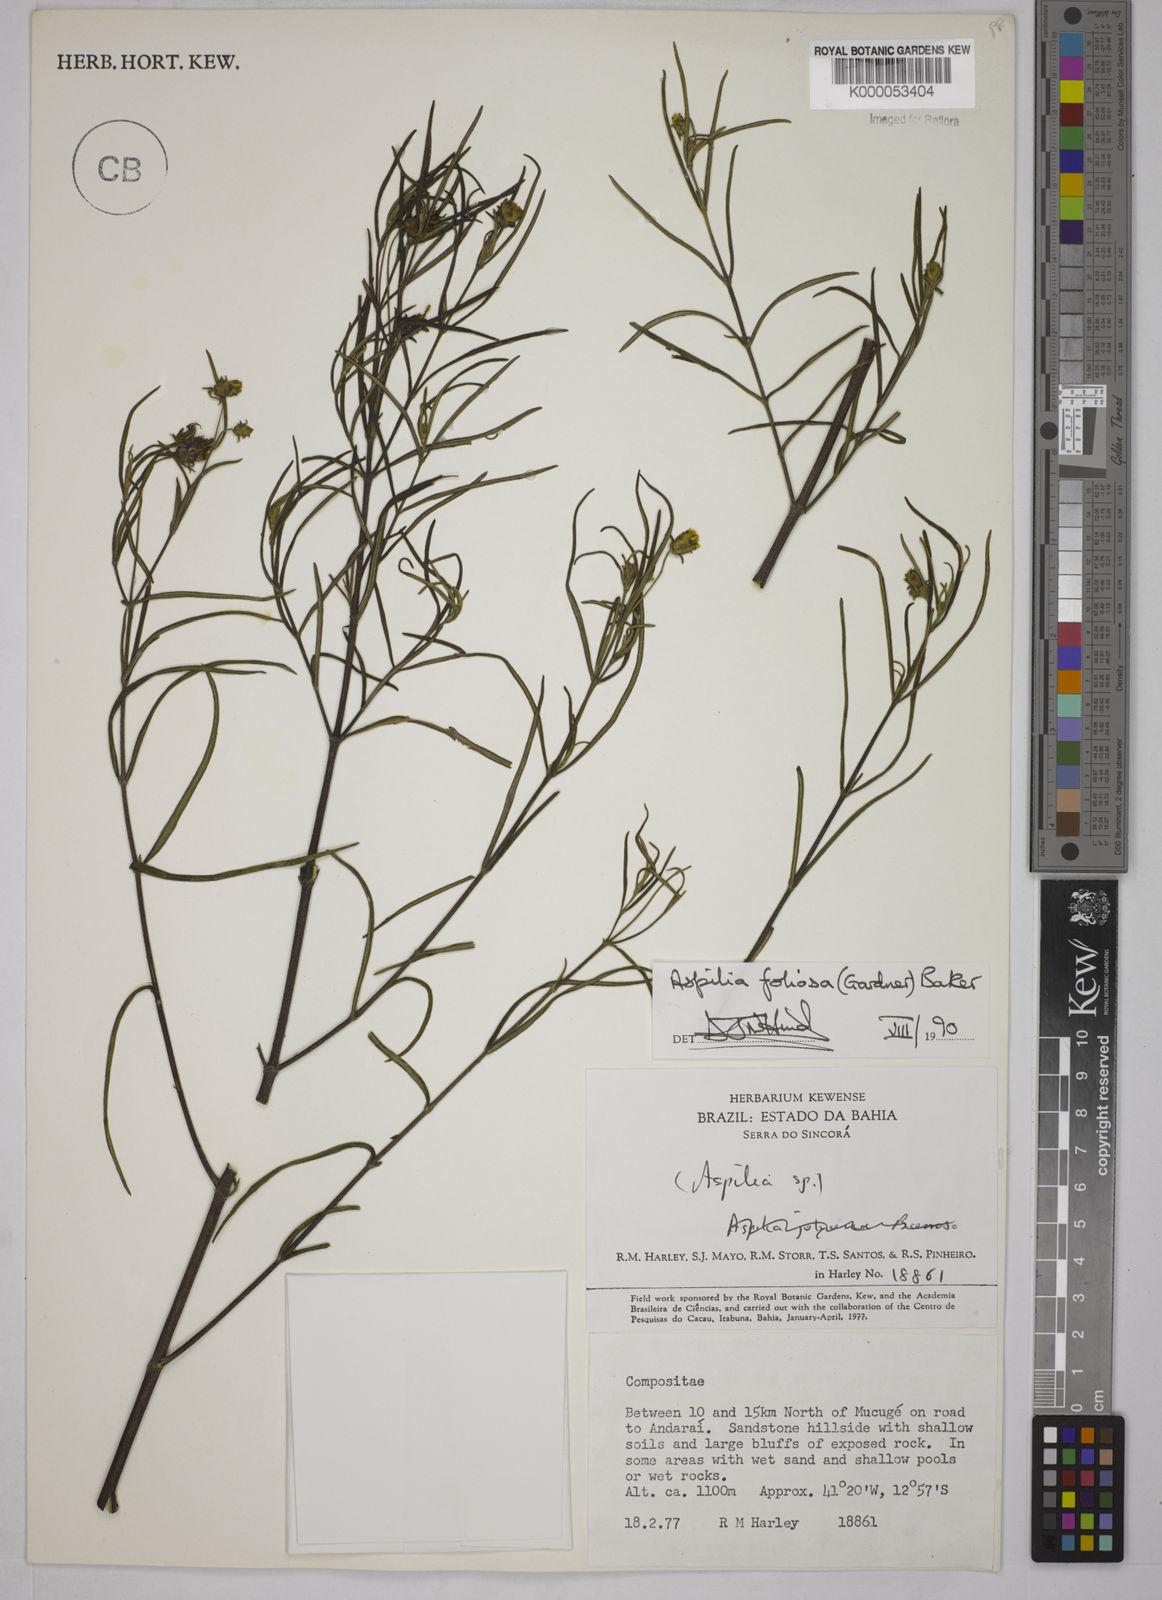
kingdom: Plantae
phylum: Tracheophyta
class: Magnoliopsida
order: Asterales
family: Asteraceae
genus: Aspilia
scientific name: Aspilia
